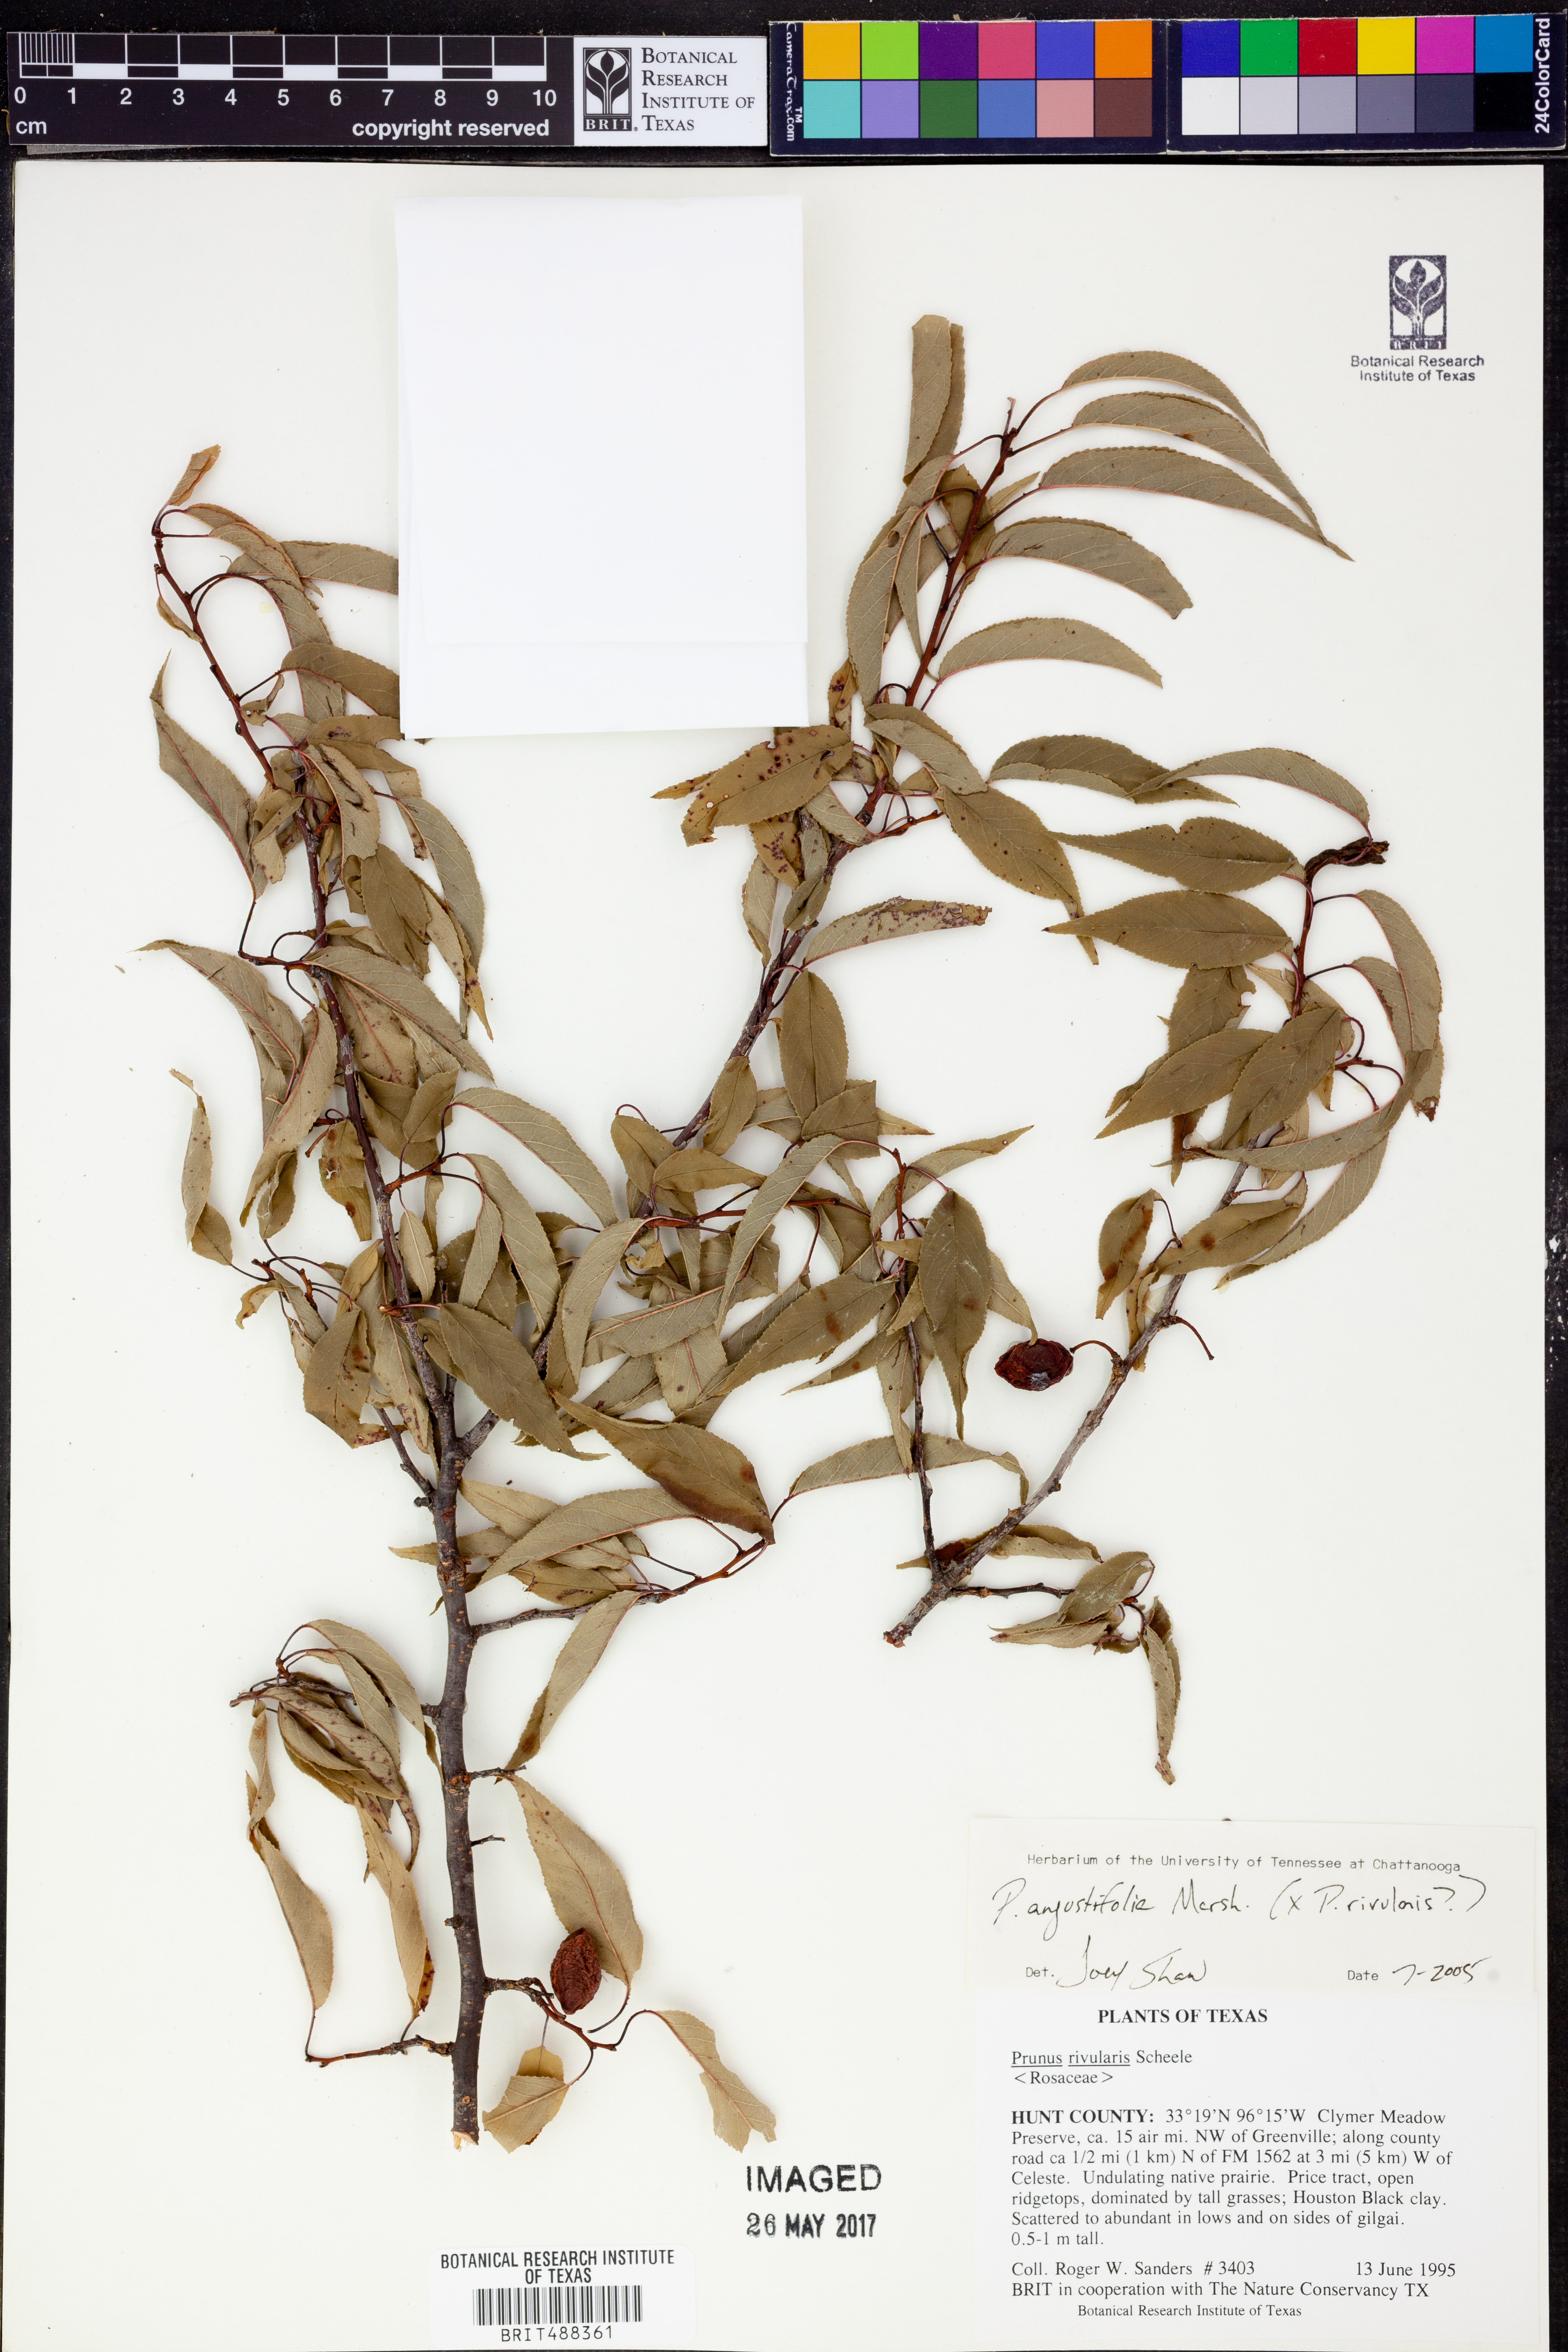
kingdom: Plantae
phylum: Tracheophyta
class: Magnoliopsida
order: Rosales
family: Rosaceae
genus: Prunus
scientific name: Prunus angustifolia
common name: Cherokee plum
